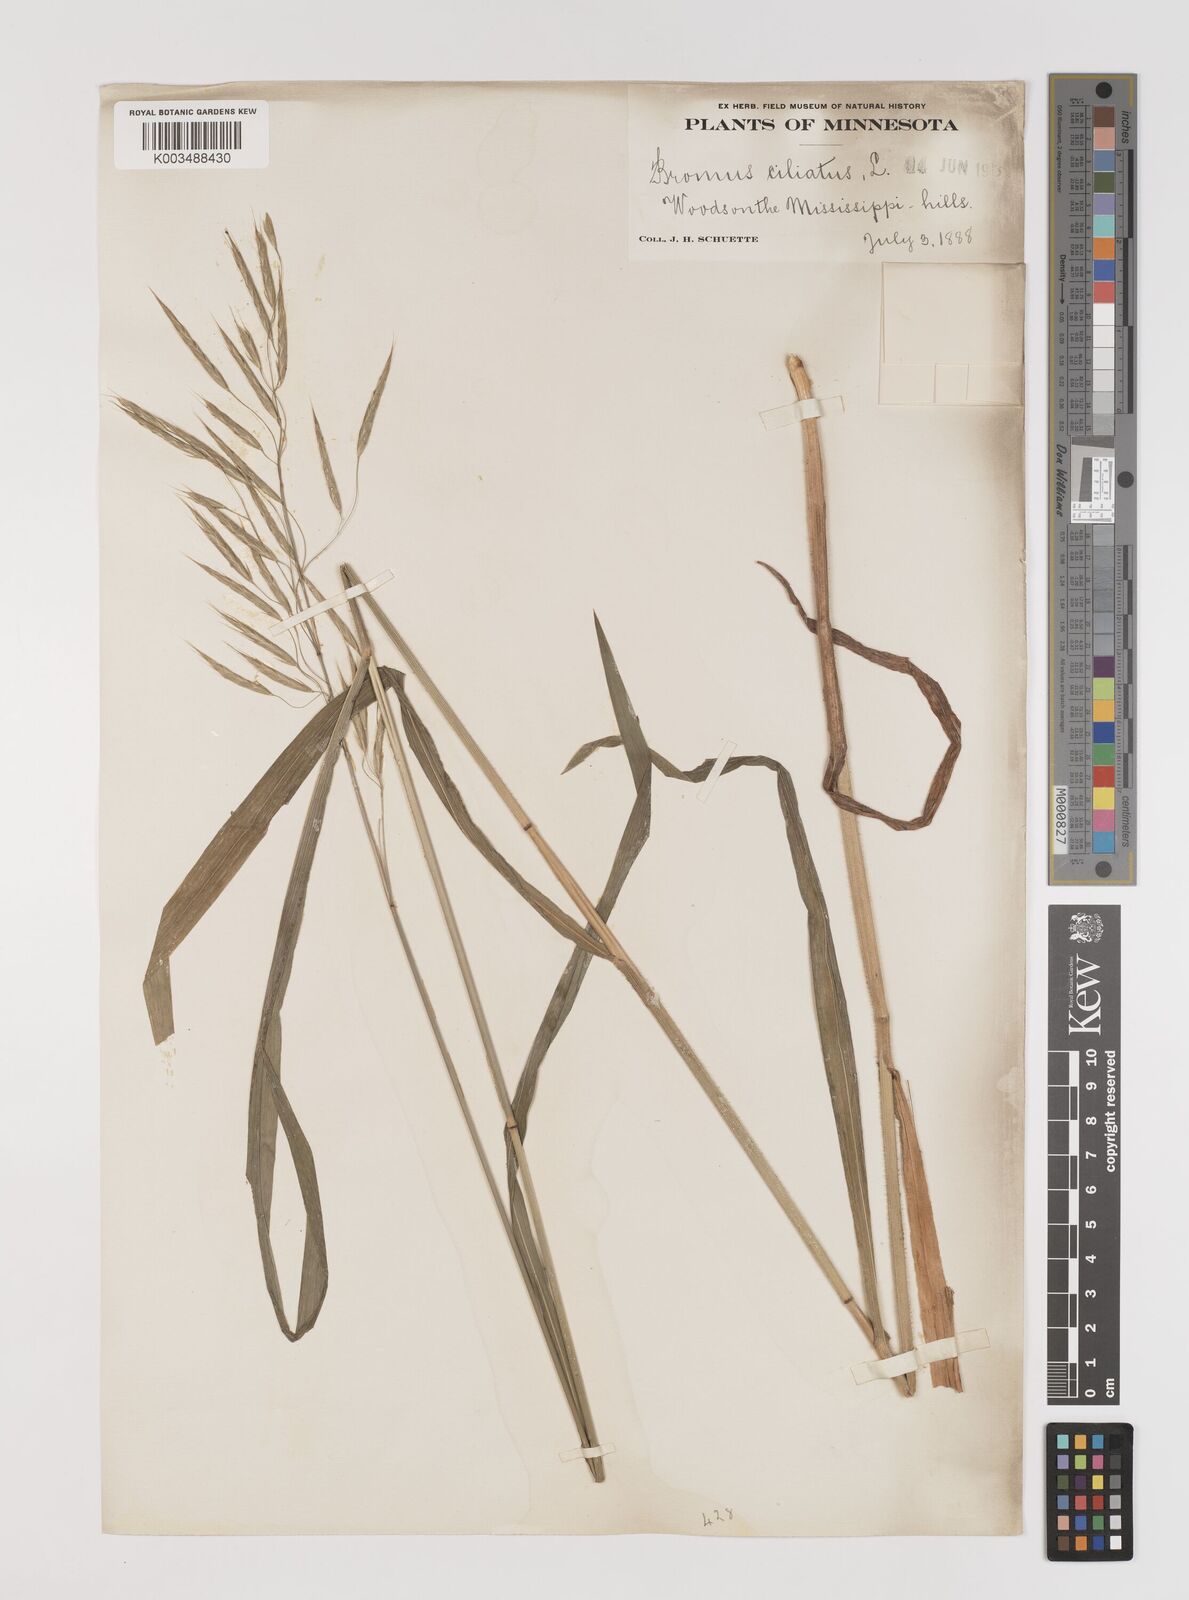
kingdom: Plantae
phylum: Tracheophyta
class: Liliopsida
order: Poales
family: Poaceae
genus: Bromus
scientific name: Bromus ciliatus
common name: Fringe brome
